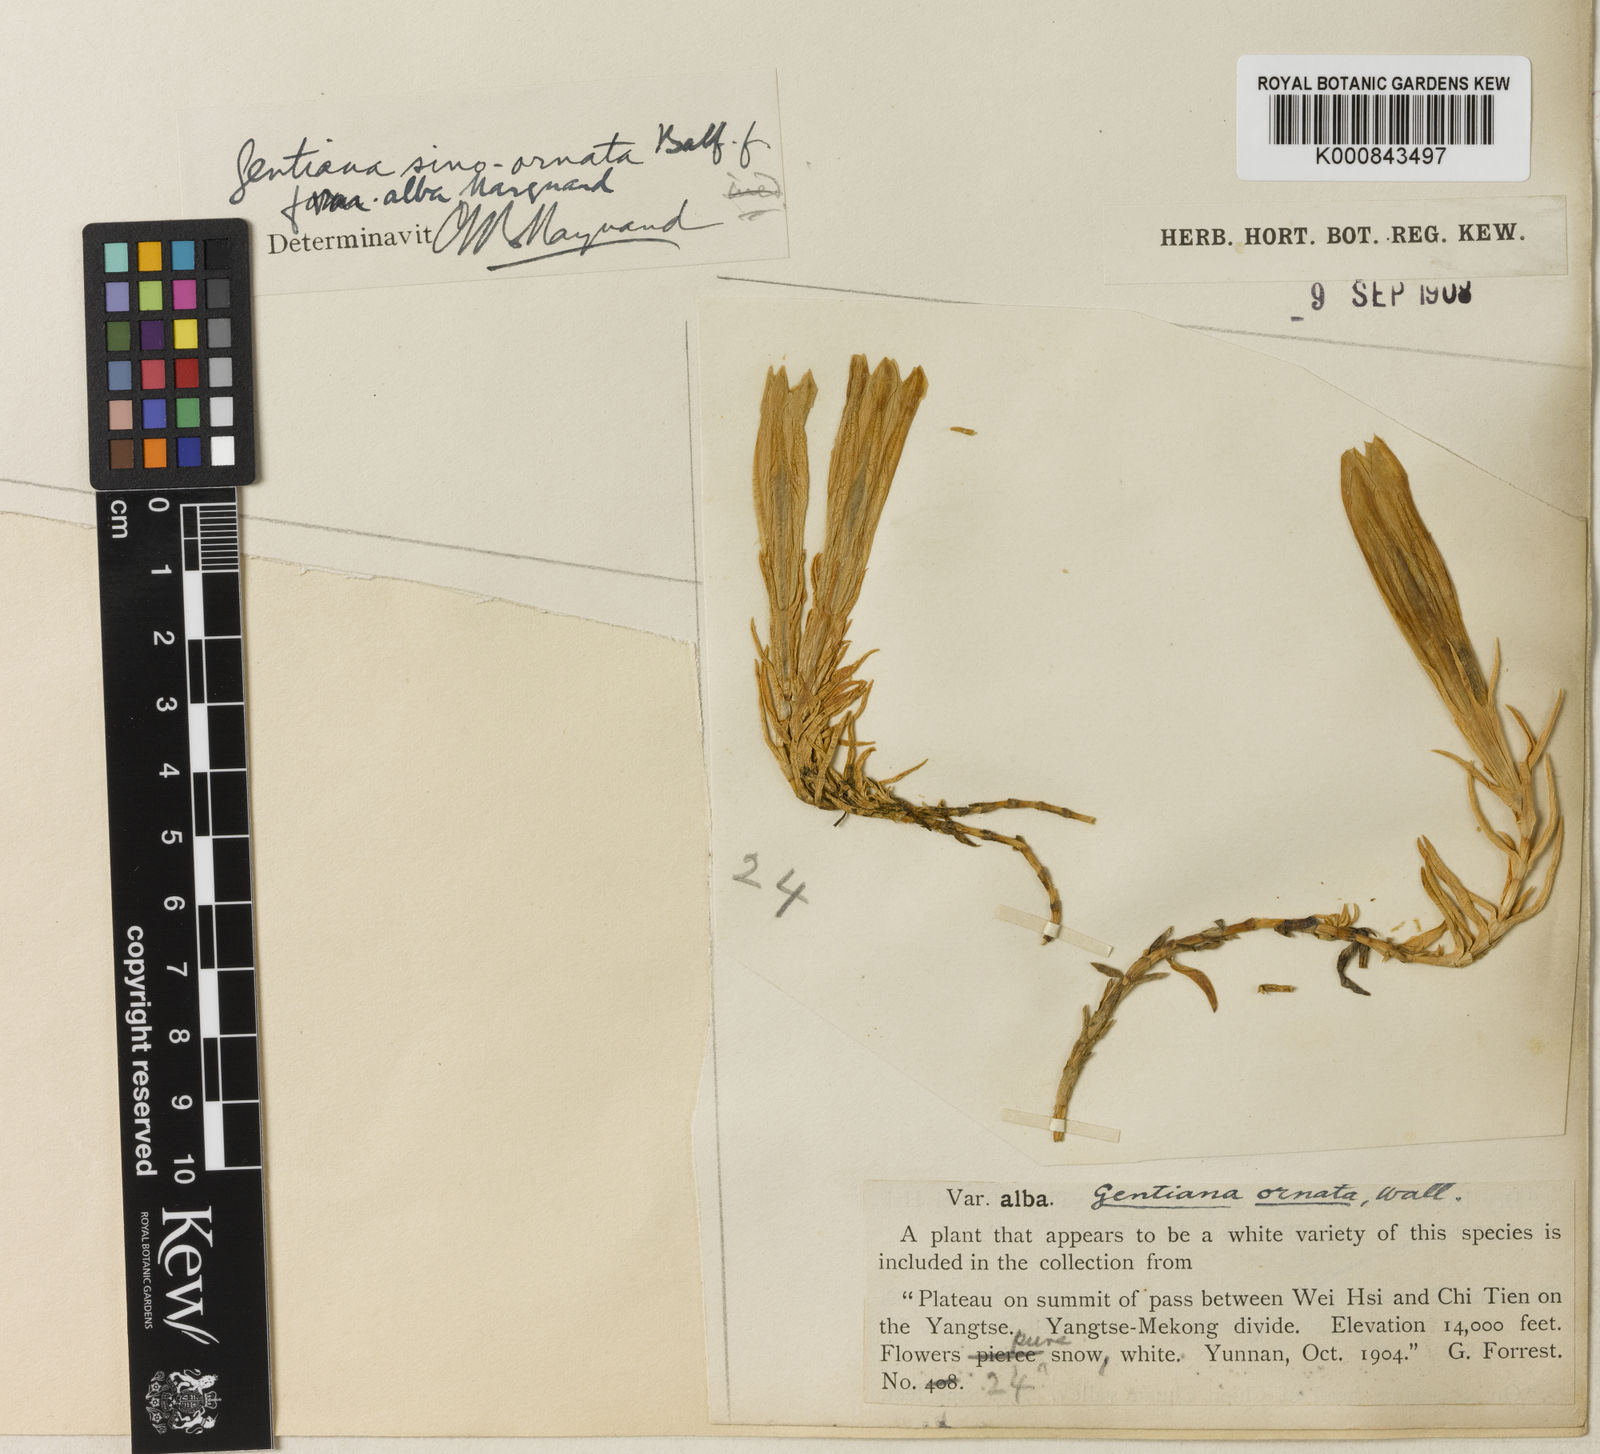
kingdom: Plantae
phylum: Tracheophyta
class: Magnoliopsida
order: Gentianales
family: Gentianaceae
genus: Gentiana
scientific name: Gentiana
